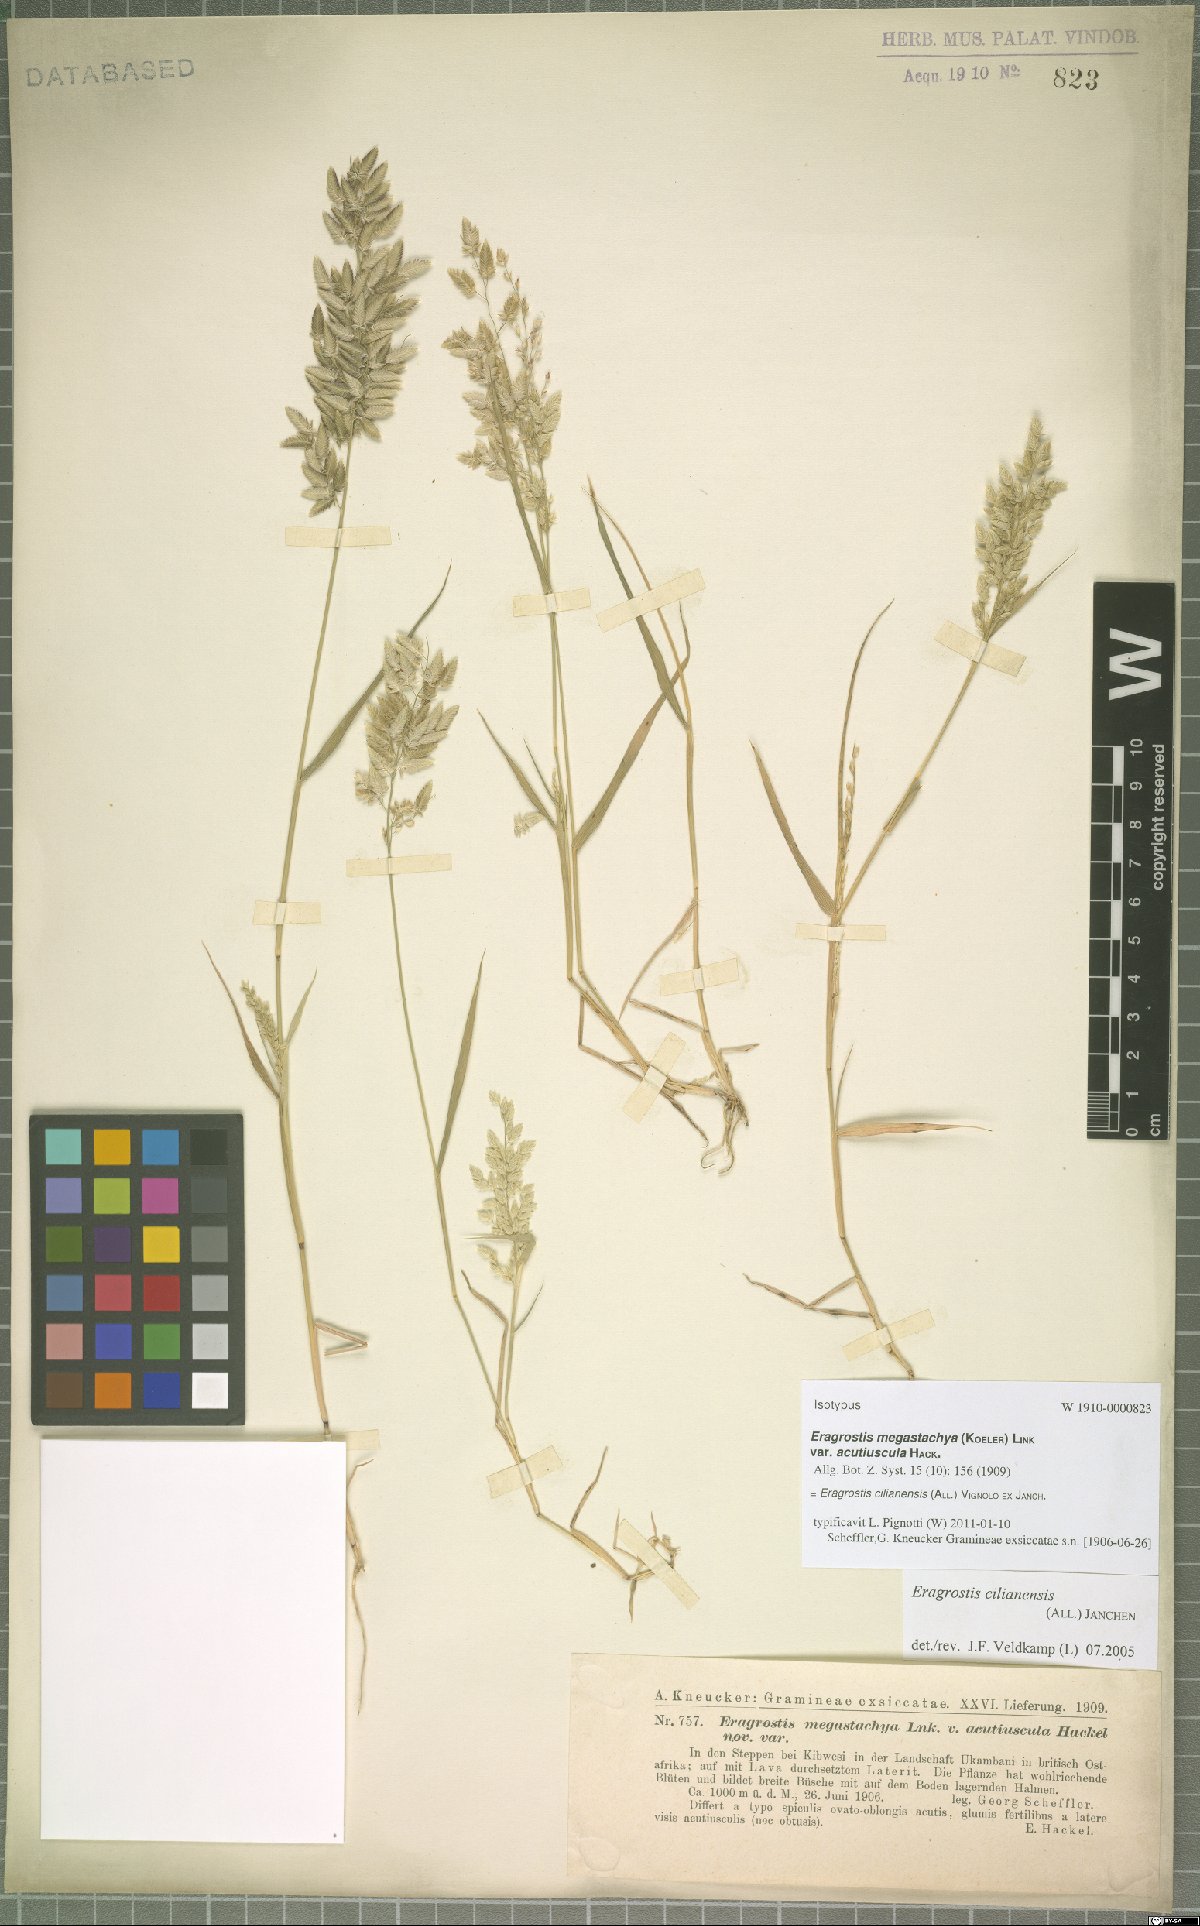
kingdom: Plantae
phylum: Tracheophyta
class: Liliopsida
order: Poales
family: Poaceae
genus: Eragrostis
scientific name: Eragrostis cilianensis
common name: Stinkgrass
